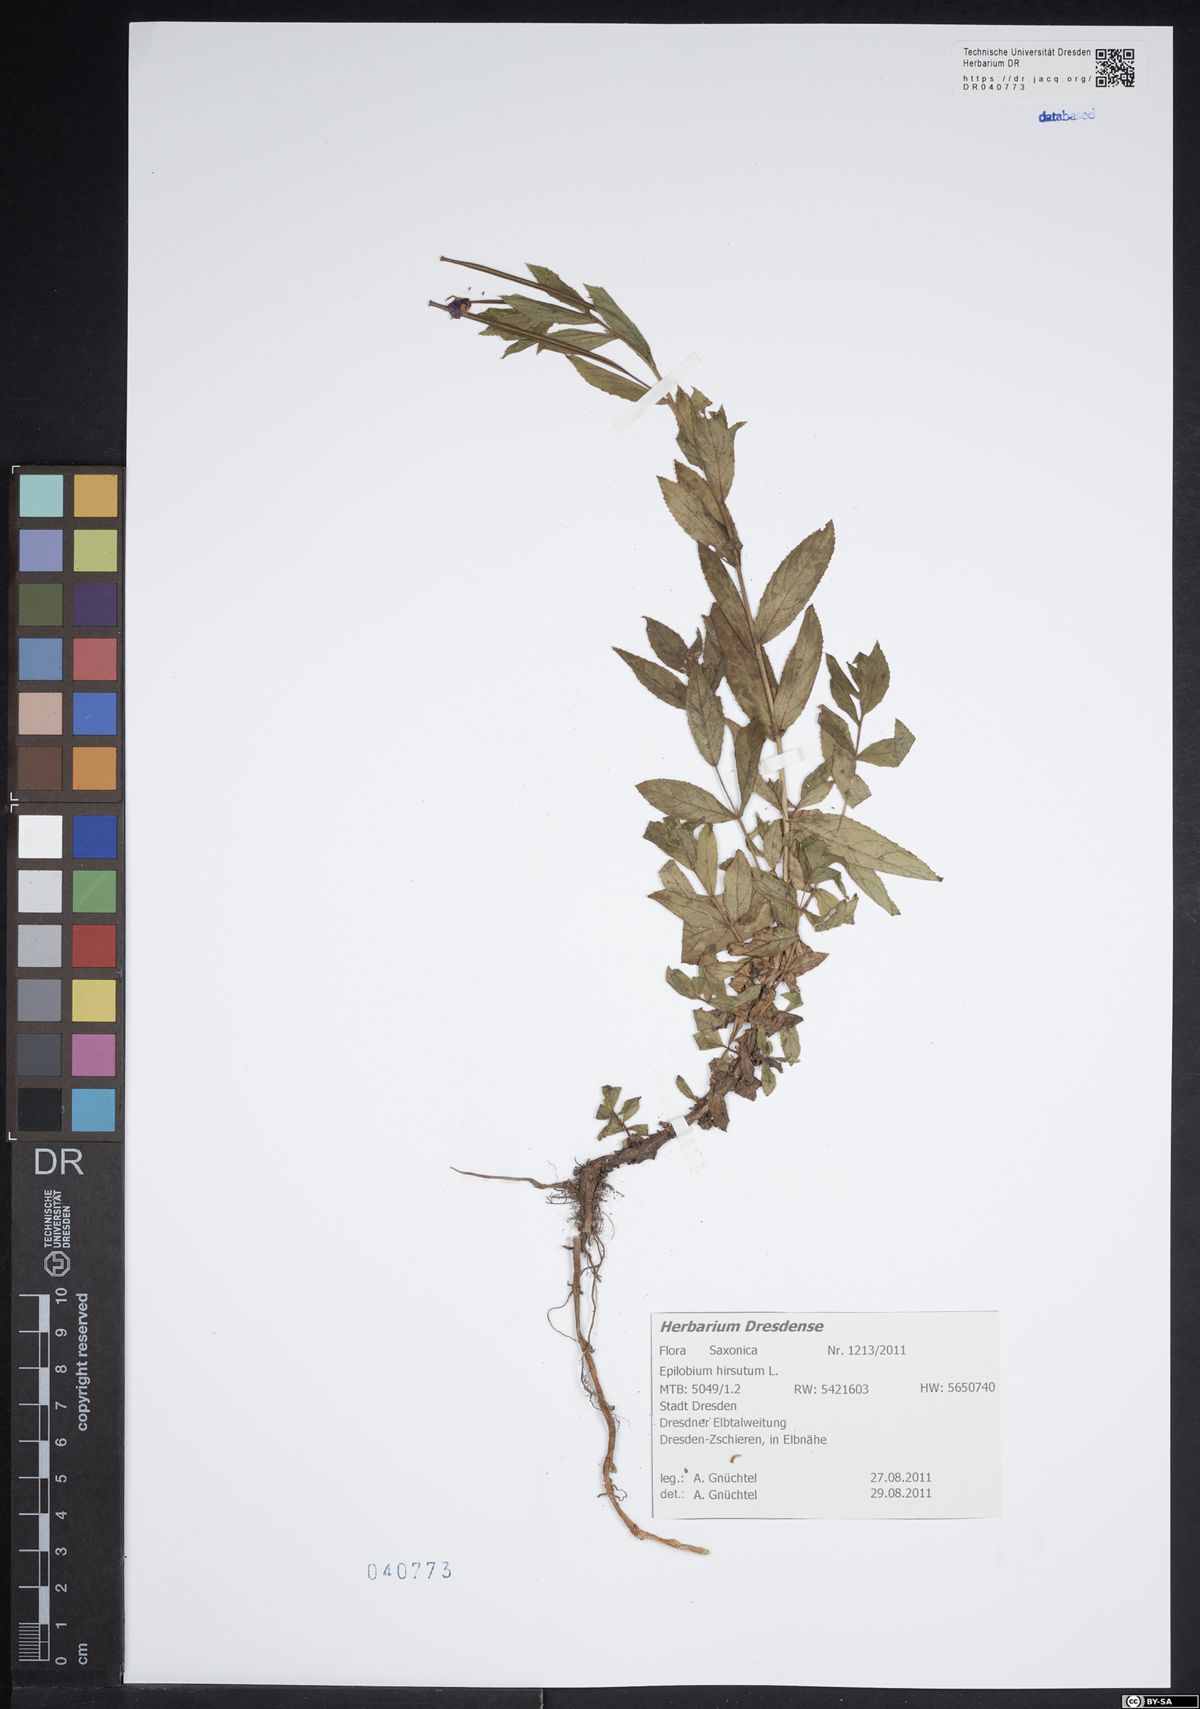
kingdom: Plantae
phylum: Tracheophyta
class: Magnoliopsida
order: Myrtales
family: Onagraceae
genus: Epilobium
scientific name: Epilobium hirsutum
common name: Great willowherb
